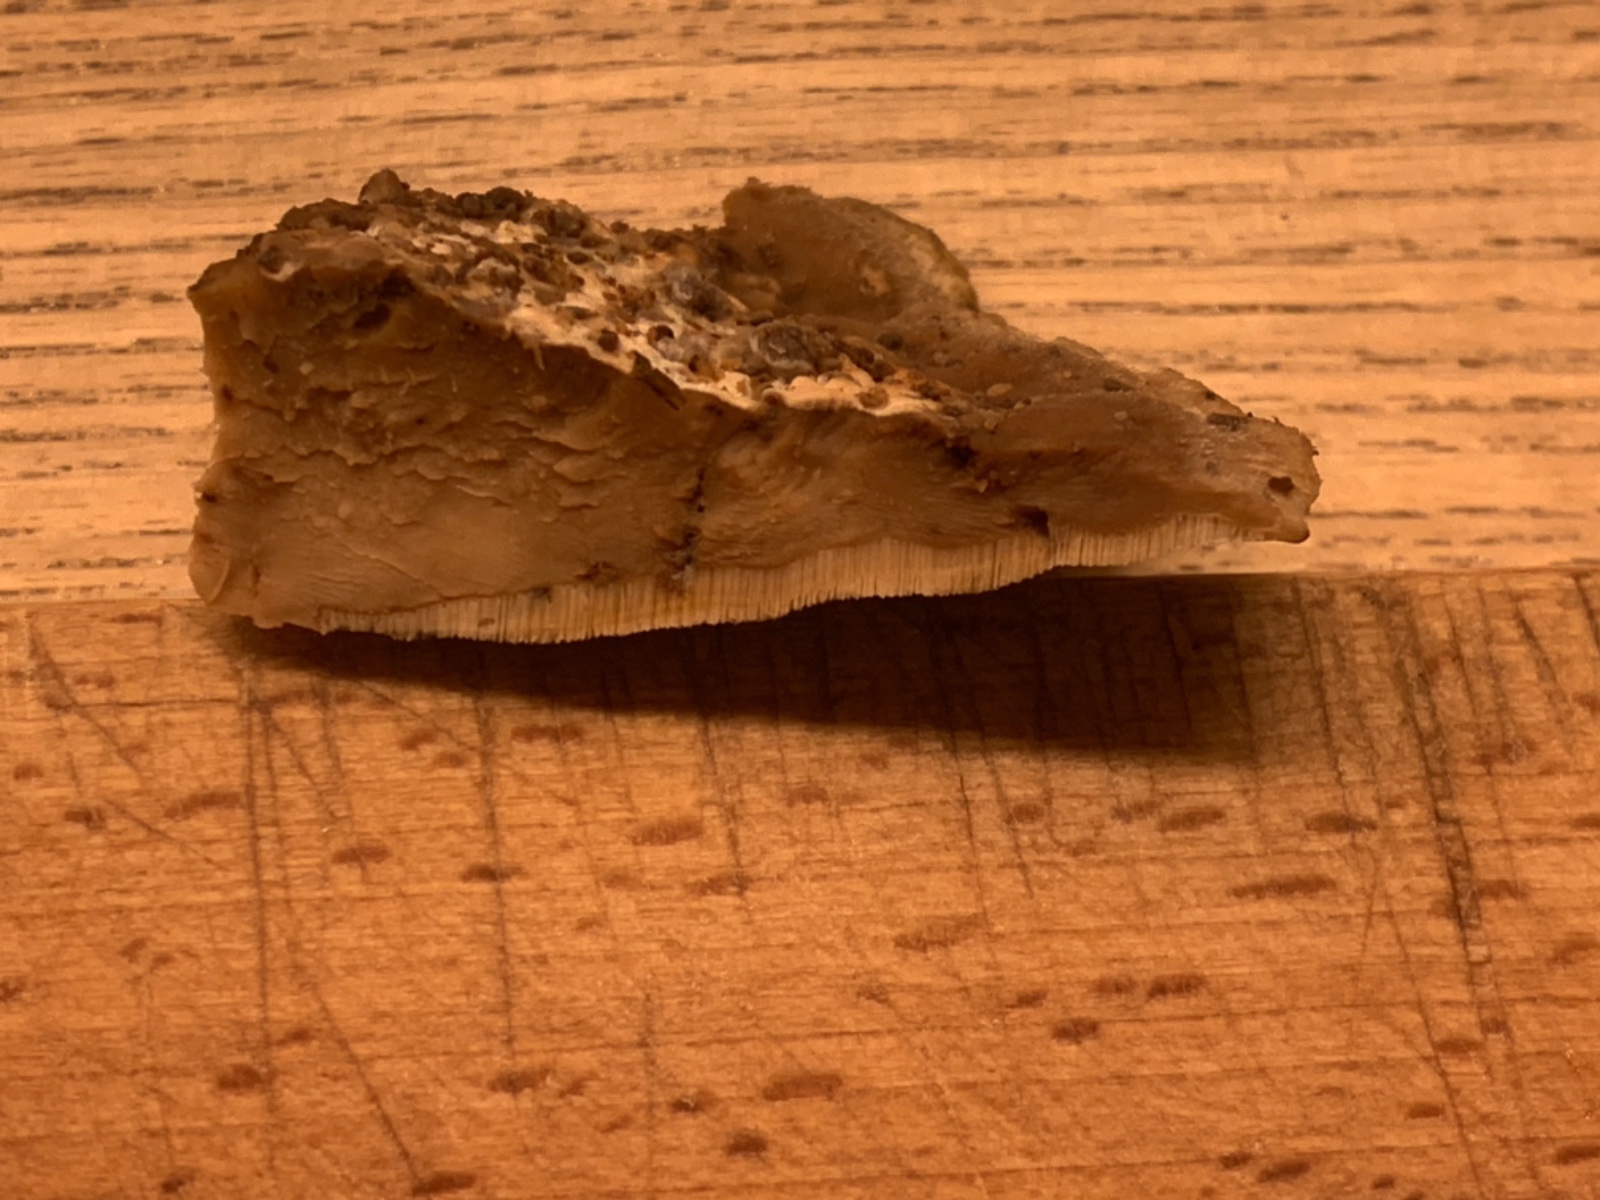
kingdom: Fungi
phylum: Basidiomycota
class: Agaricomycetes
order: Polyporales
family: Phanerochaetaceae
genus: Bjerkandera
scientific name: Bjerkandera fumosa
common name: grågul sodporesvamp
